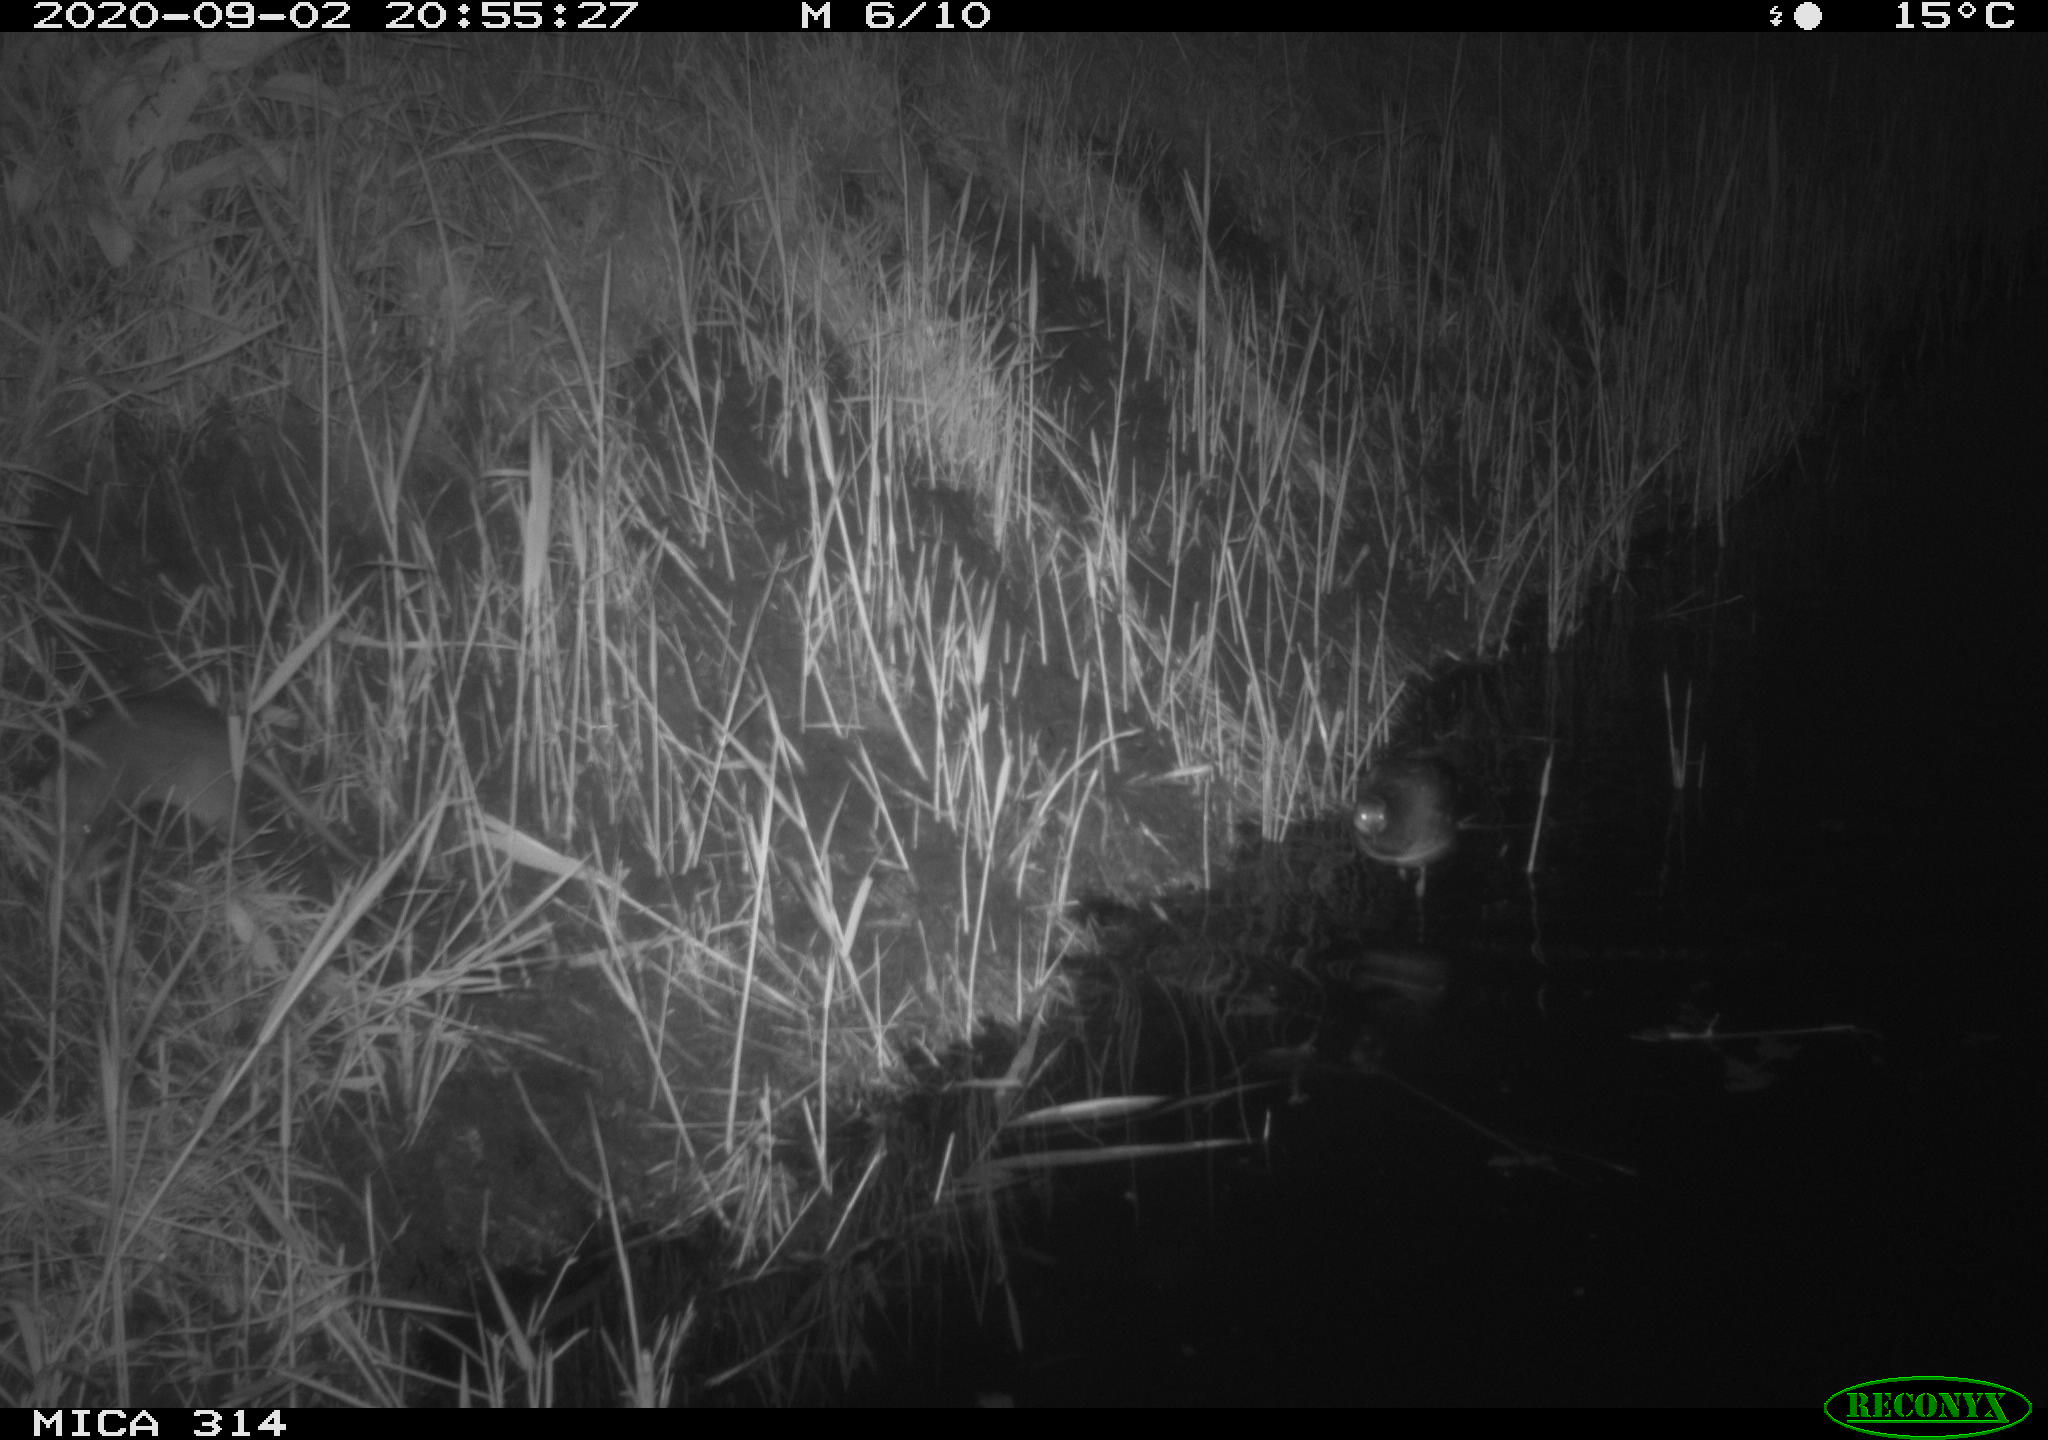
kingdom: Animalia
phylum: Chordata
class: Mammalia
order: Rodentia
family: Muridae
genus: Rattus
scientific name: Rattus norvegicus
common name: Brown rat
